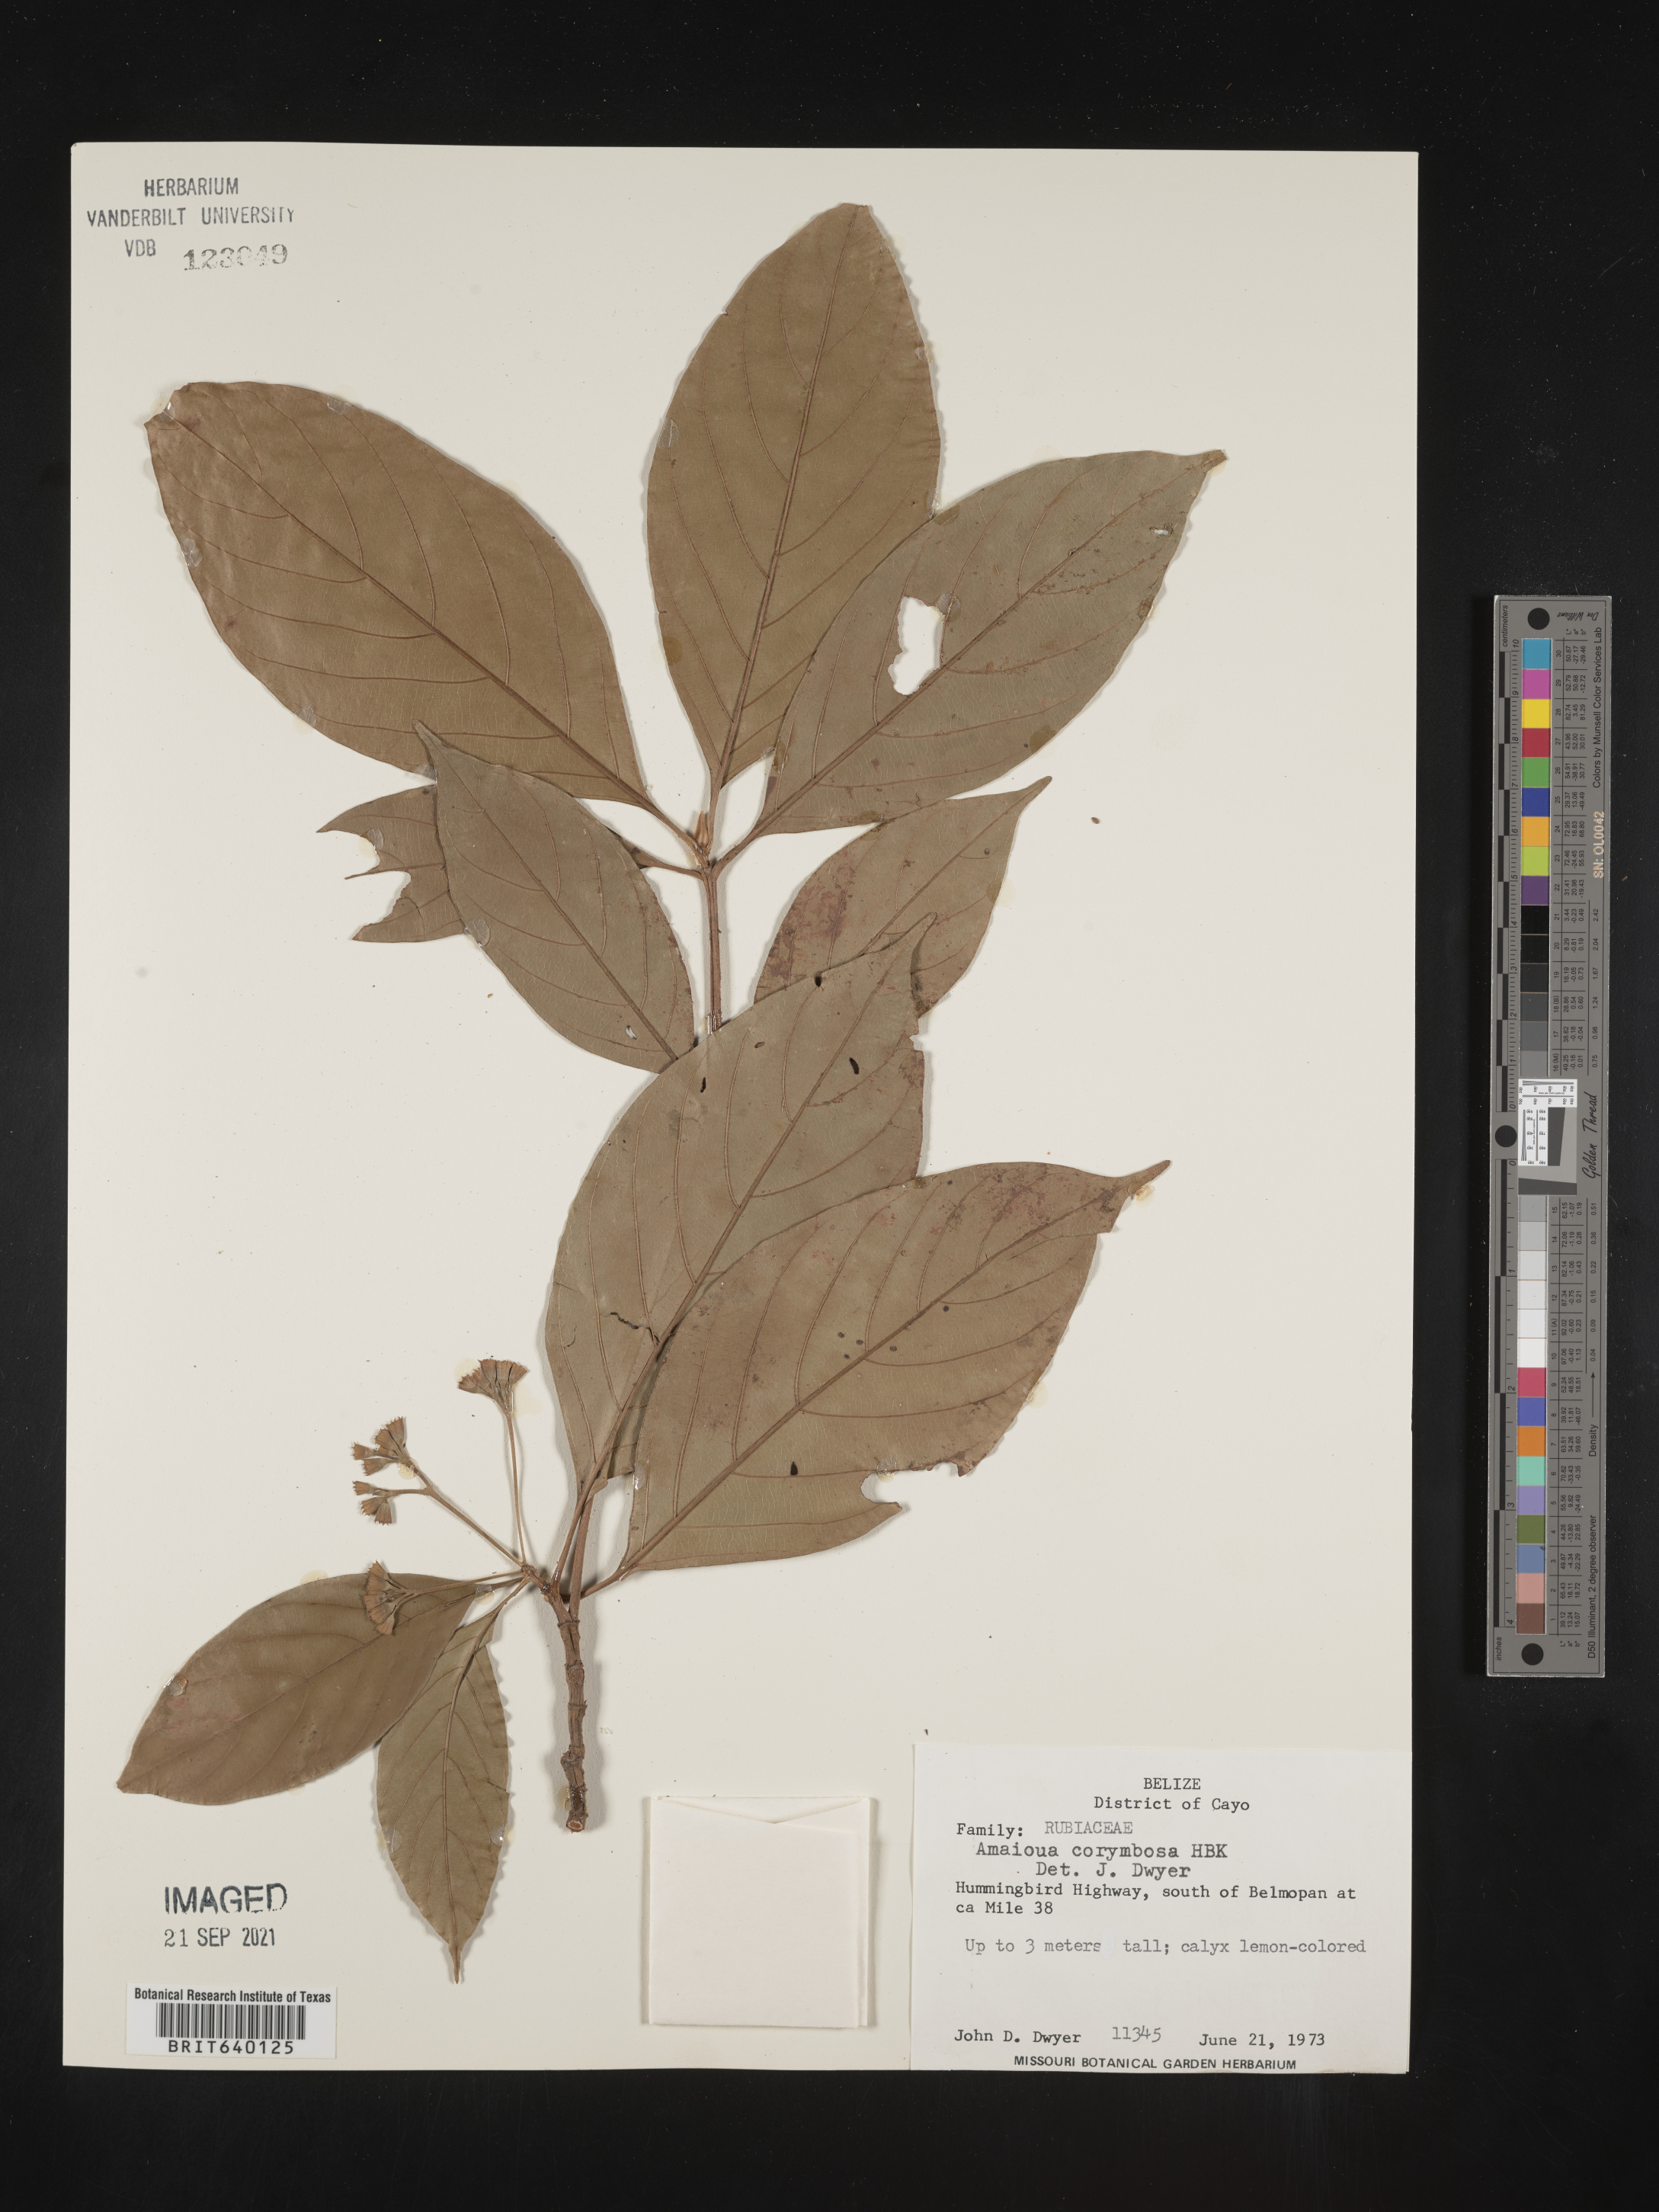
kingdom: Plantae
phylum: Tracheophyta
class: Magnoliopsida
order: Gentianales
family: Rubiaceae
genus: Amaioua
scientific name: Amaioua
